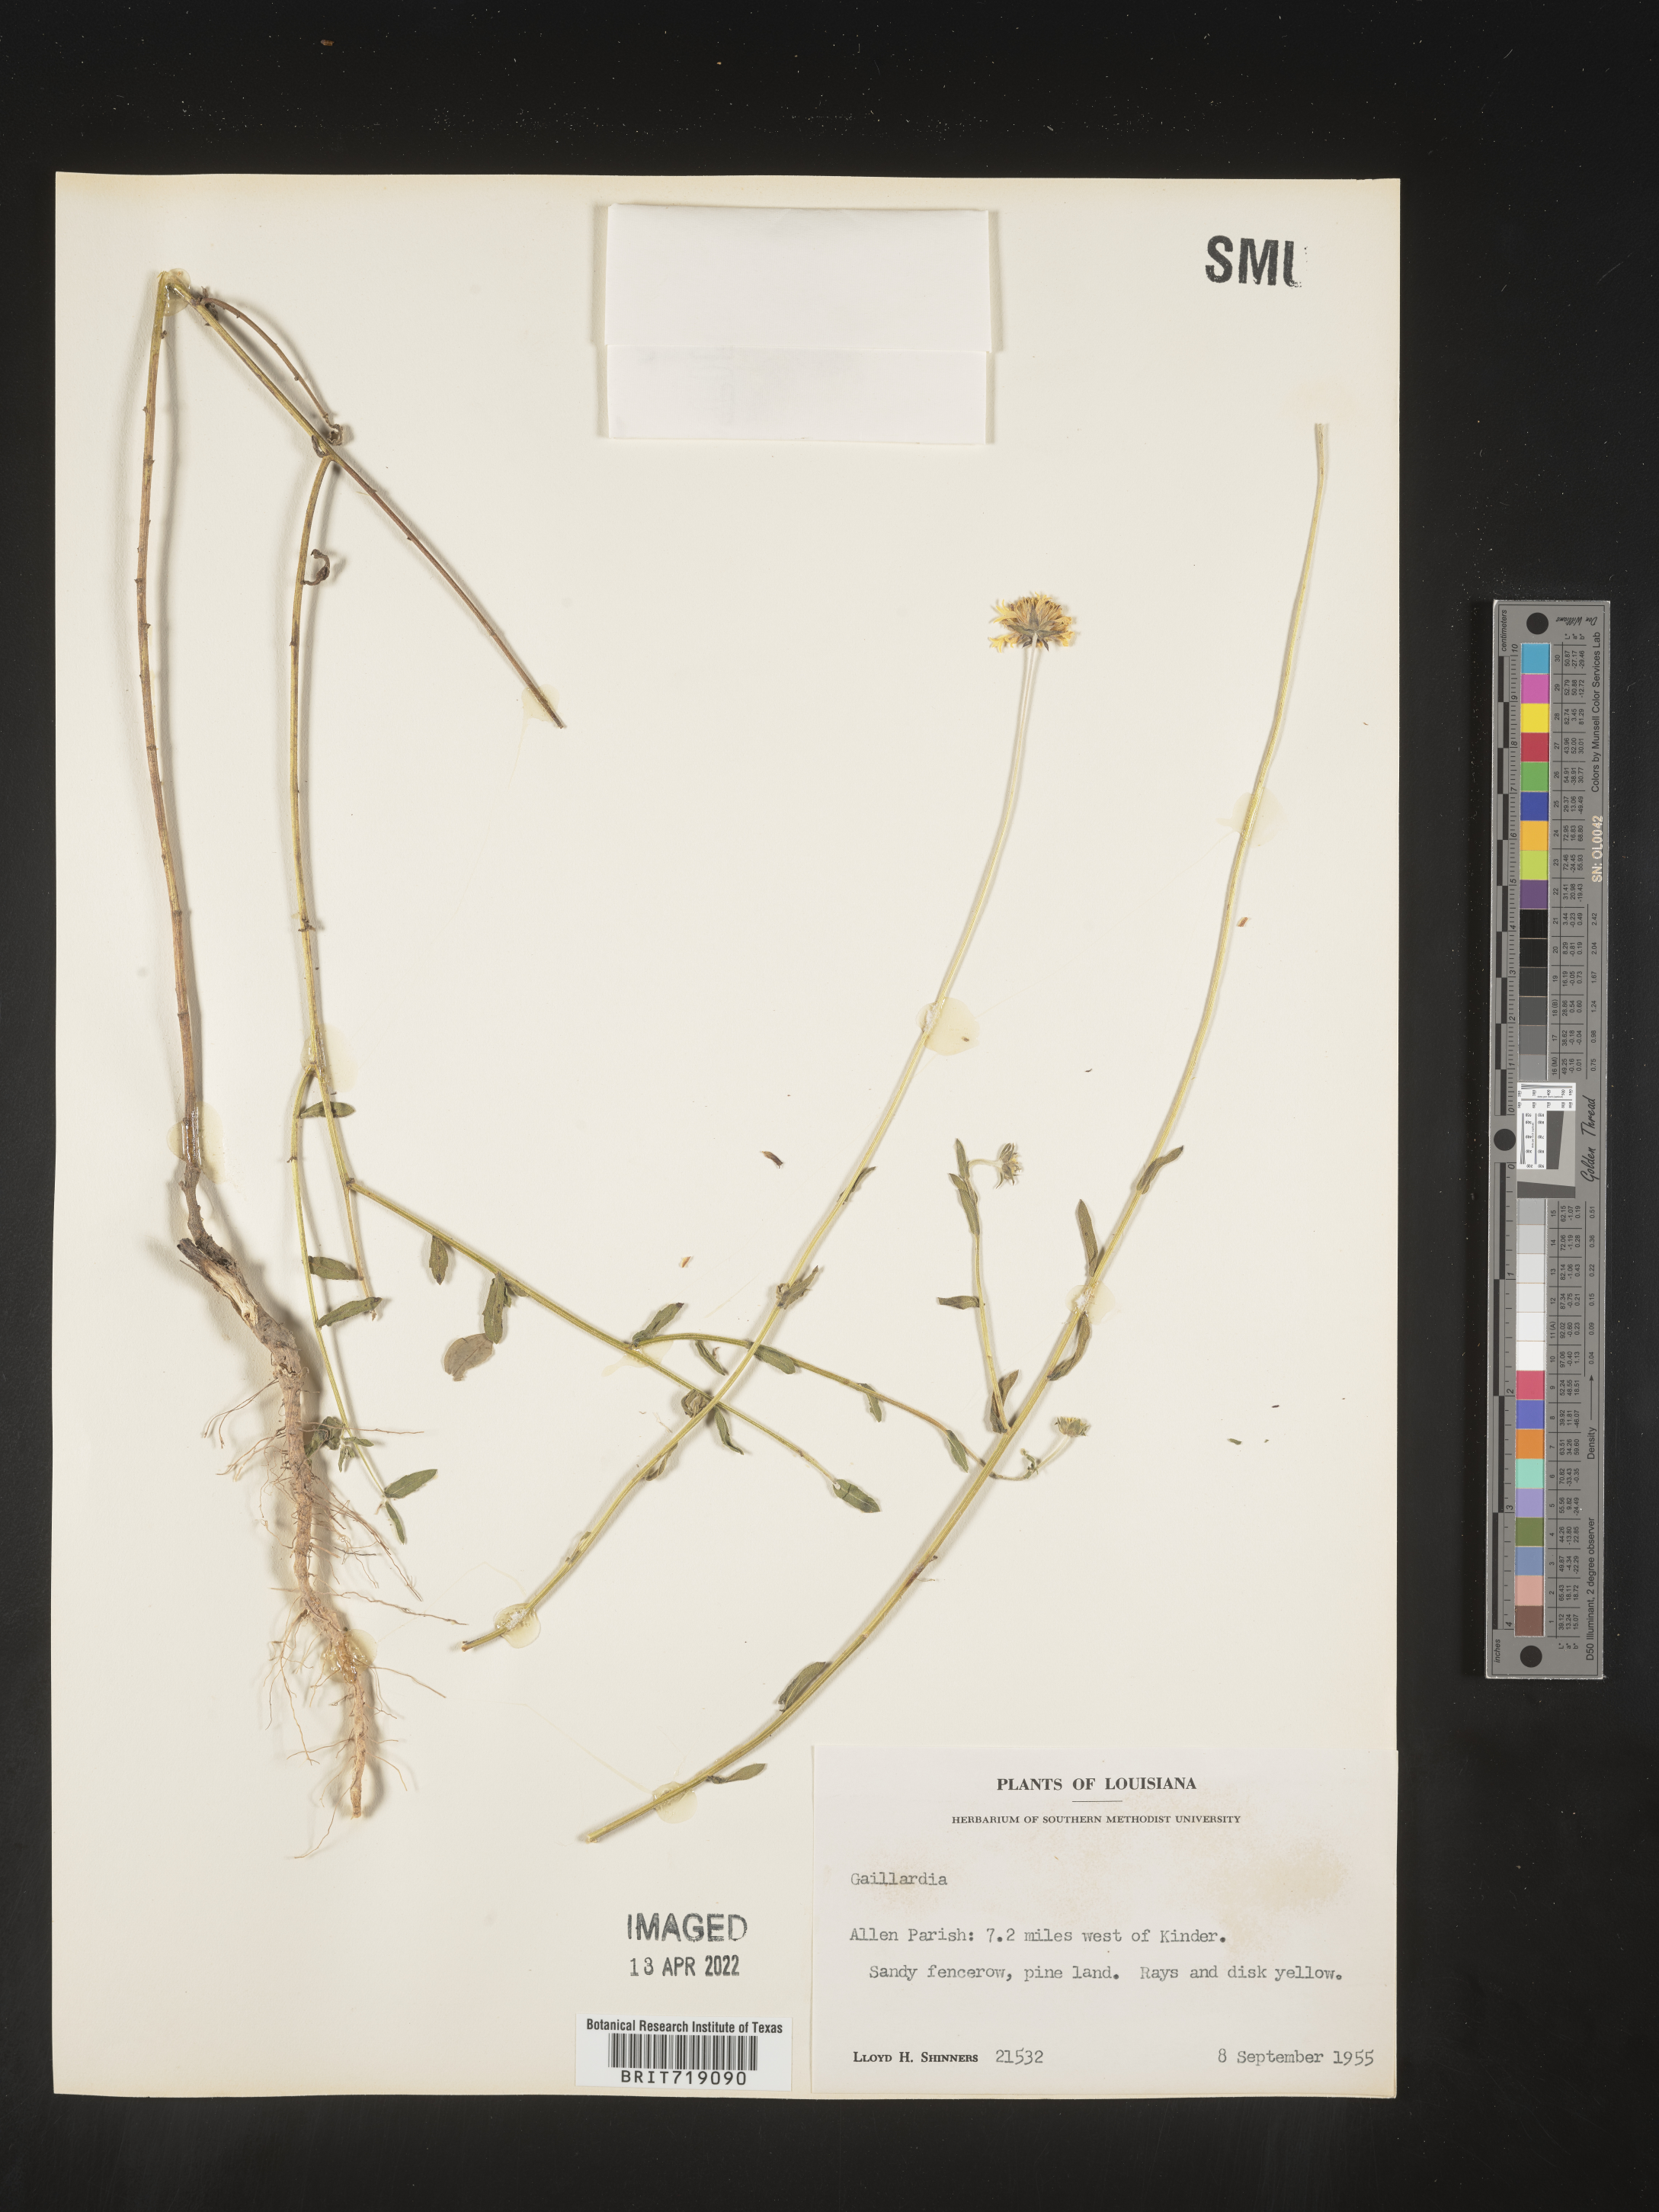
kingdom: Plantae
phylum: Tracheophyta
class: Magnoliopsida
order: Asterales
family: Asteraceae
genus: Gaillardia
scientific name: Gaillardia aestivalis
